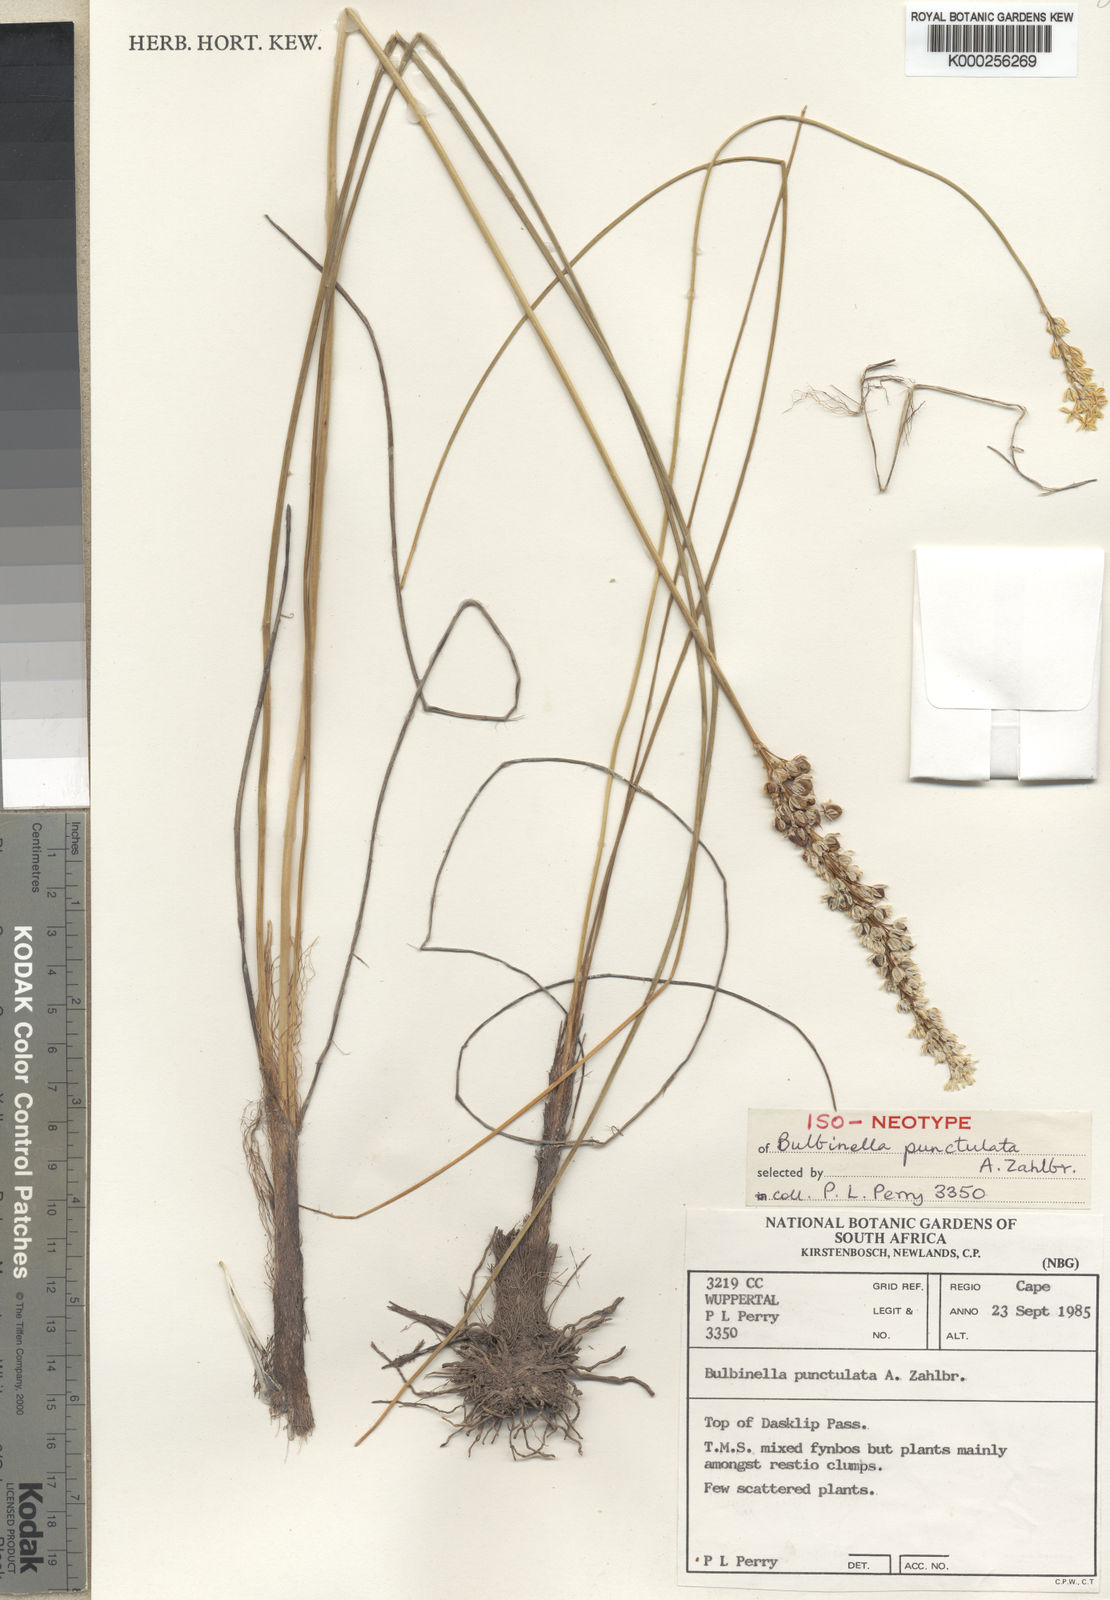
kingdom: Plantae
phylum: Tracheophyta
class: Liliopsida
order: Asparagales
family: Asphodelaceae
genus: Bulbinella
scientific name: Bulbinella punctulata
